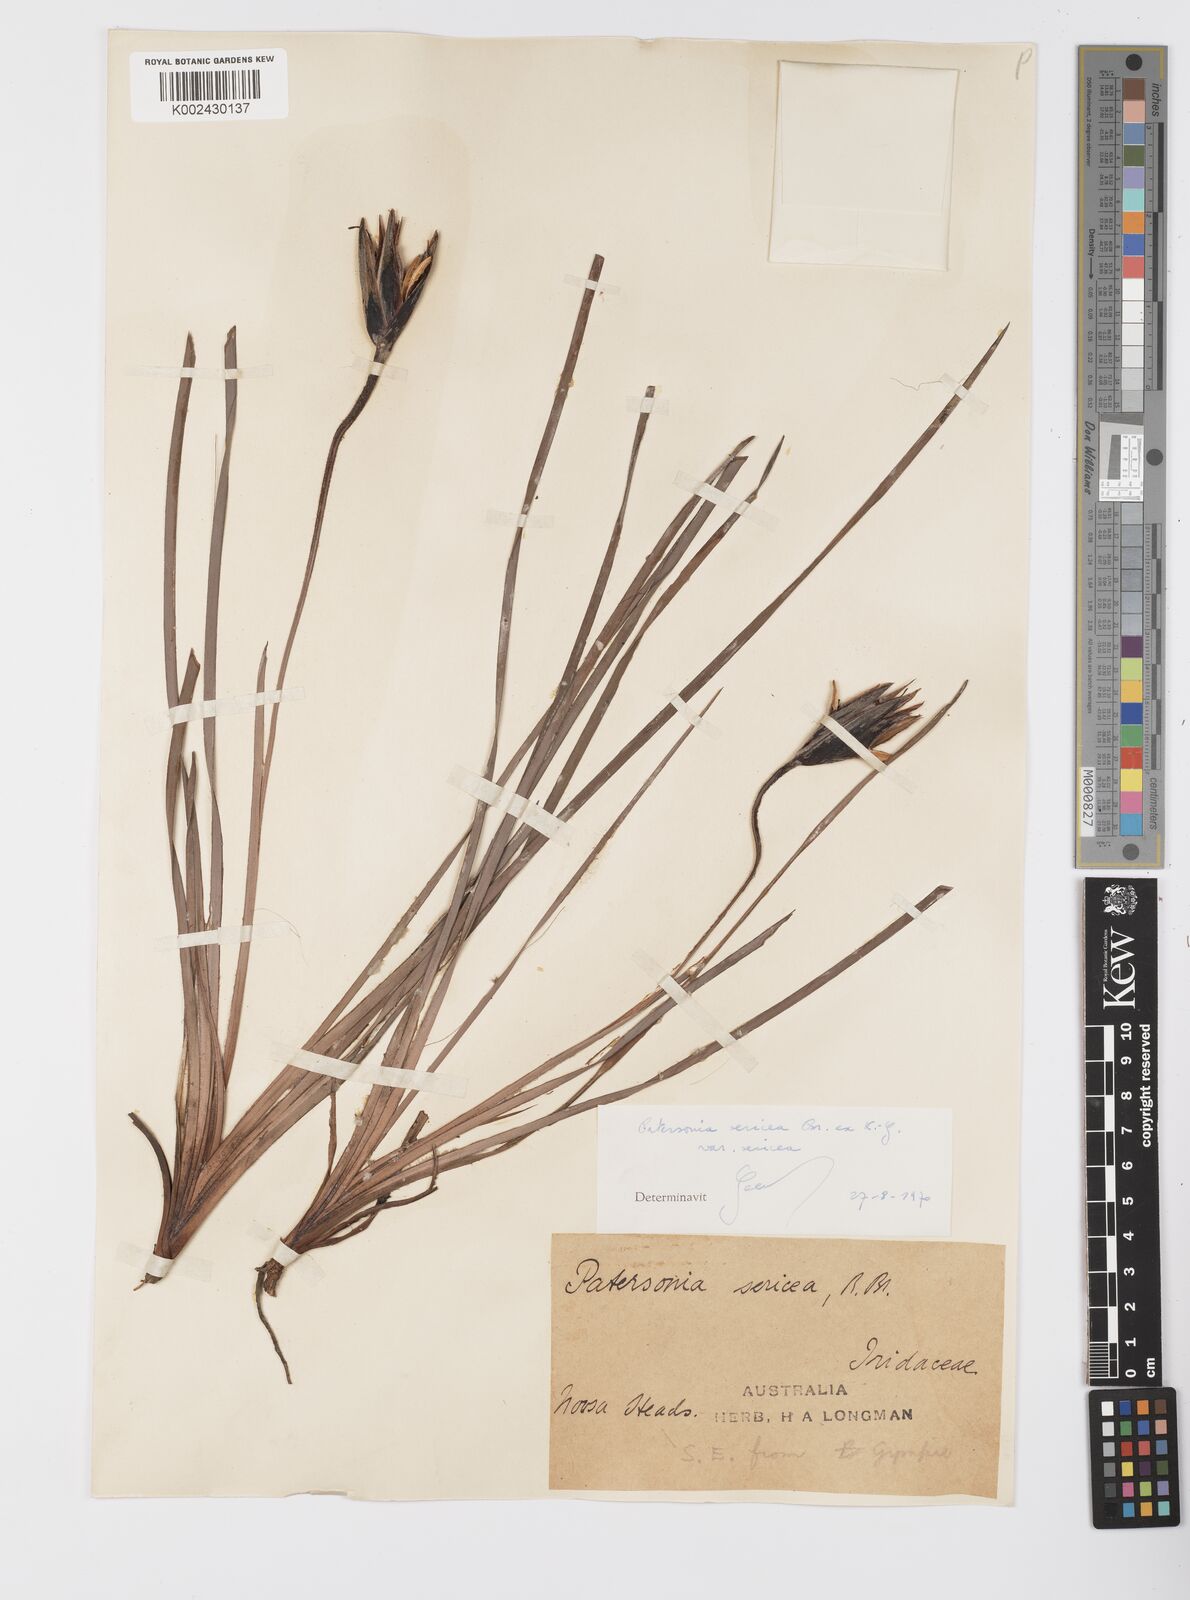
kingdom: Plantae
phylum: Tracheophyta
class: Liliopsida
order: Asparagales
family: Iridaceae
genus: Patersonia
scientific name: Patersonia sericea
